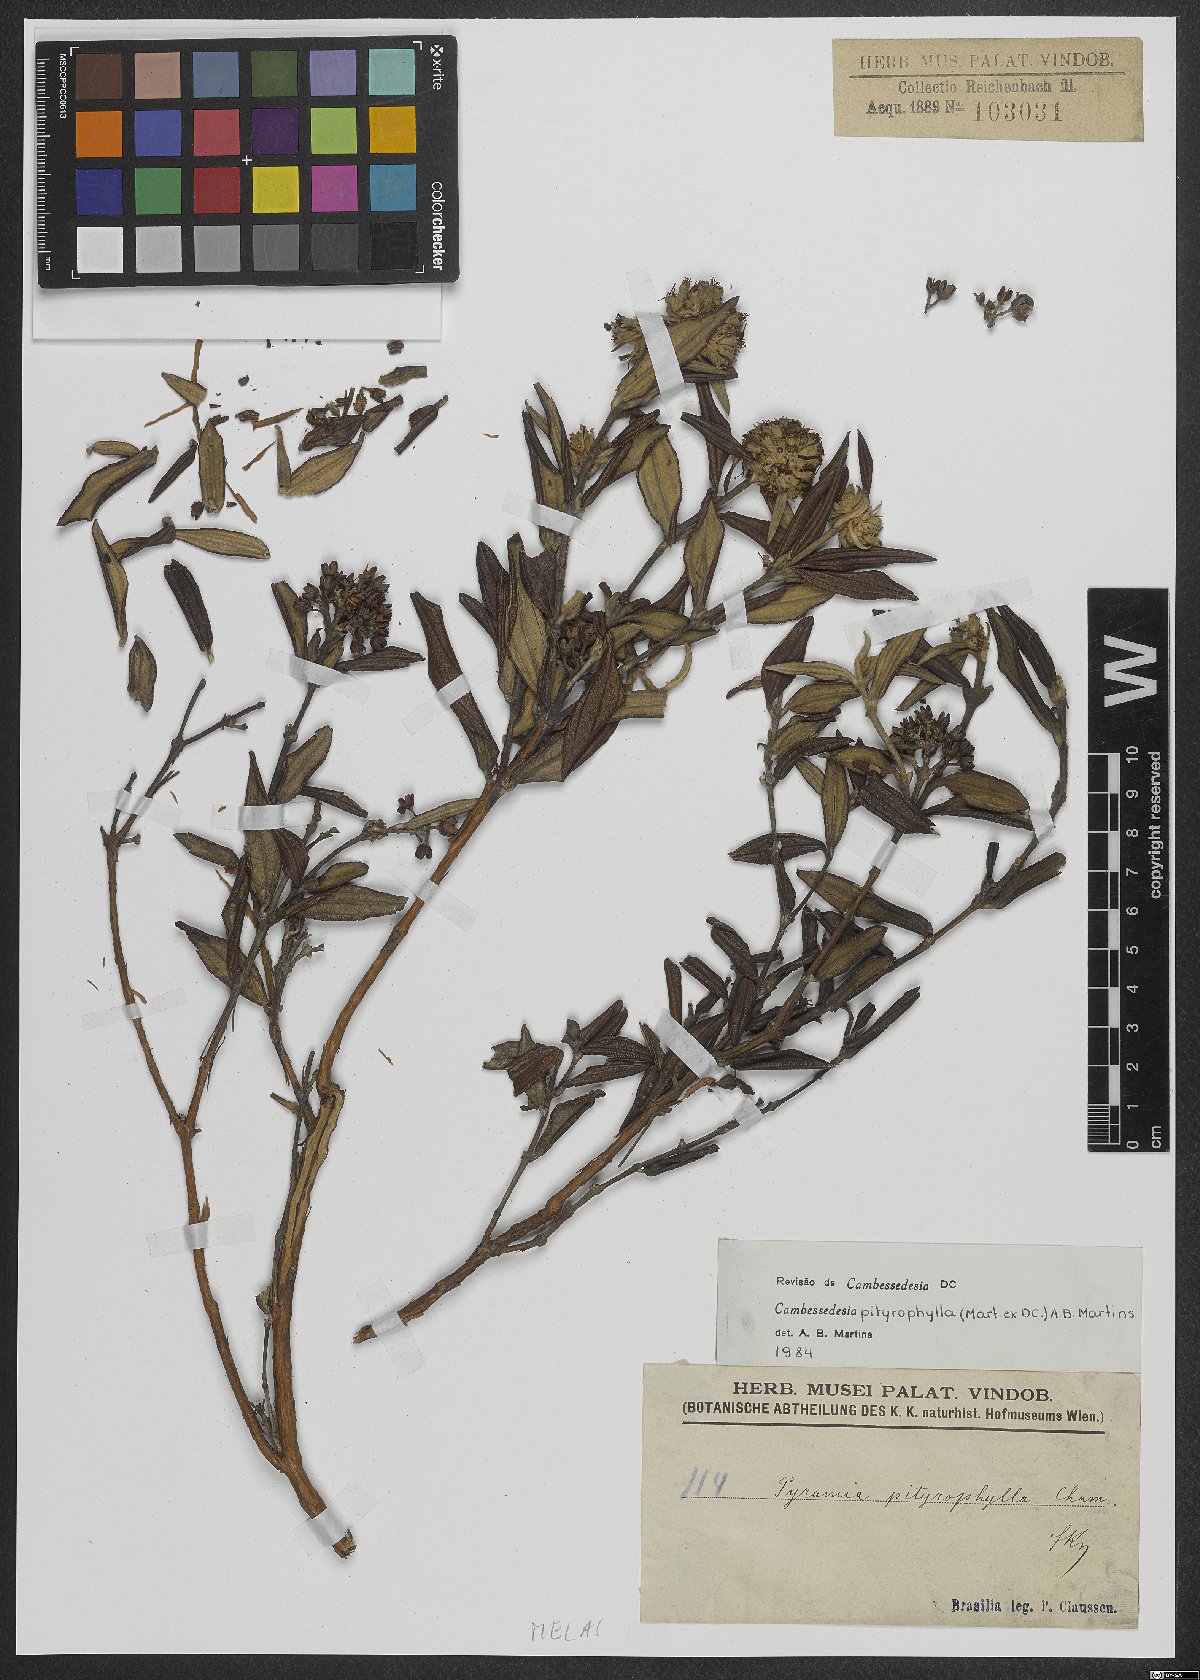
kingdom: Plantae
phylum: Tracheophyta
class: Magnoliopsida
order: Myrtales
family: Melastomataceae
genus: Cambessedesia
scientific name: Cambessedesia pityrophylla
